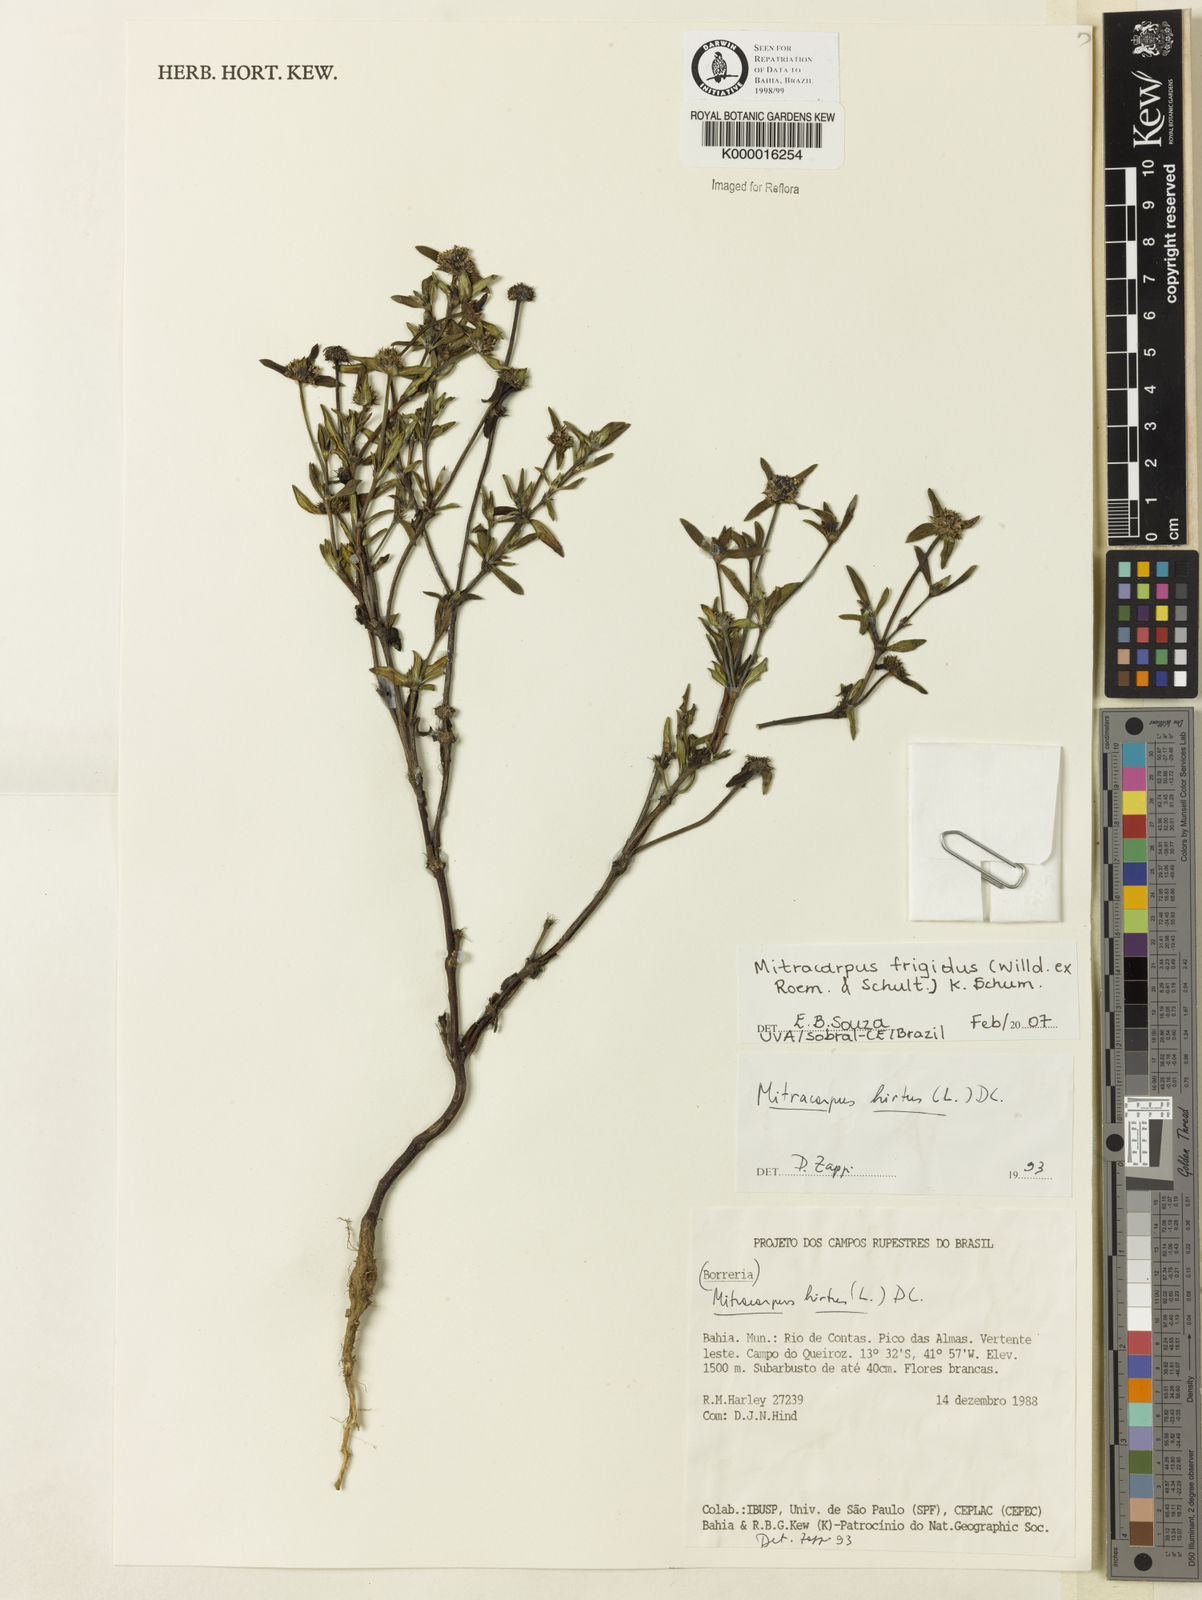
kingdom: Plantae
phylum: Tracheophyta
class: Magnoliopsida
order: Gentianales
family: Rubiaceae
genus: Mitracarpus
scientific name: Mitracarpus frigidus
